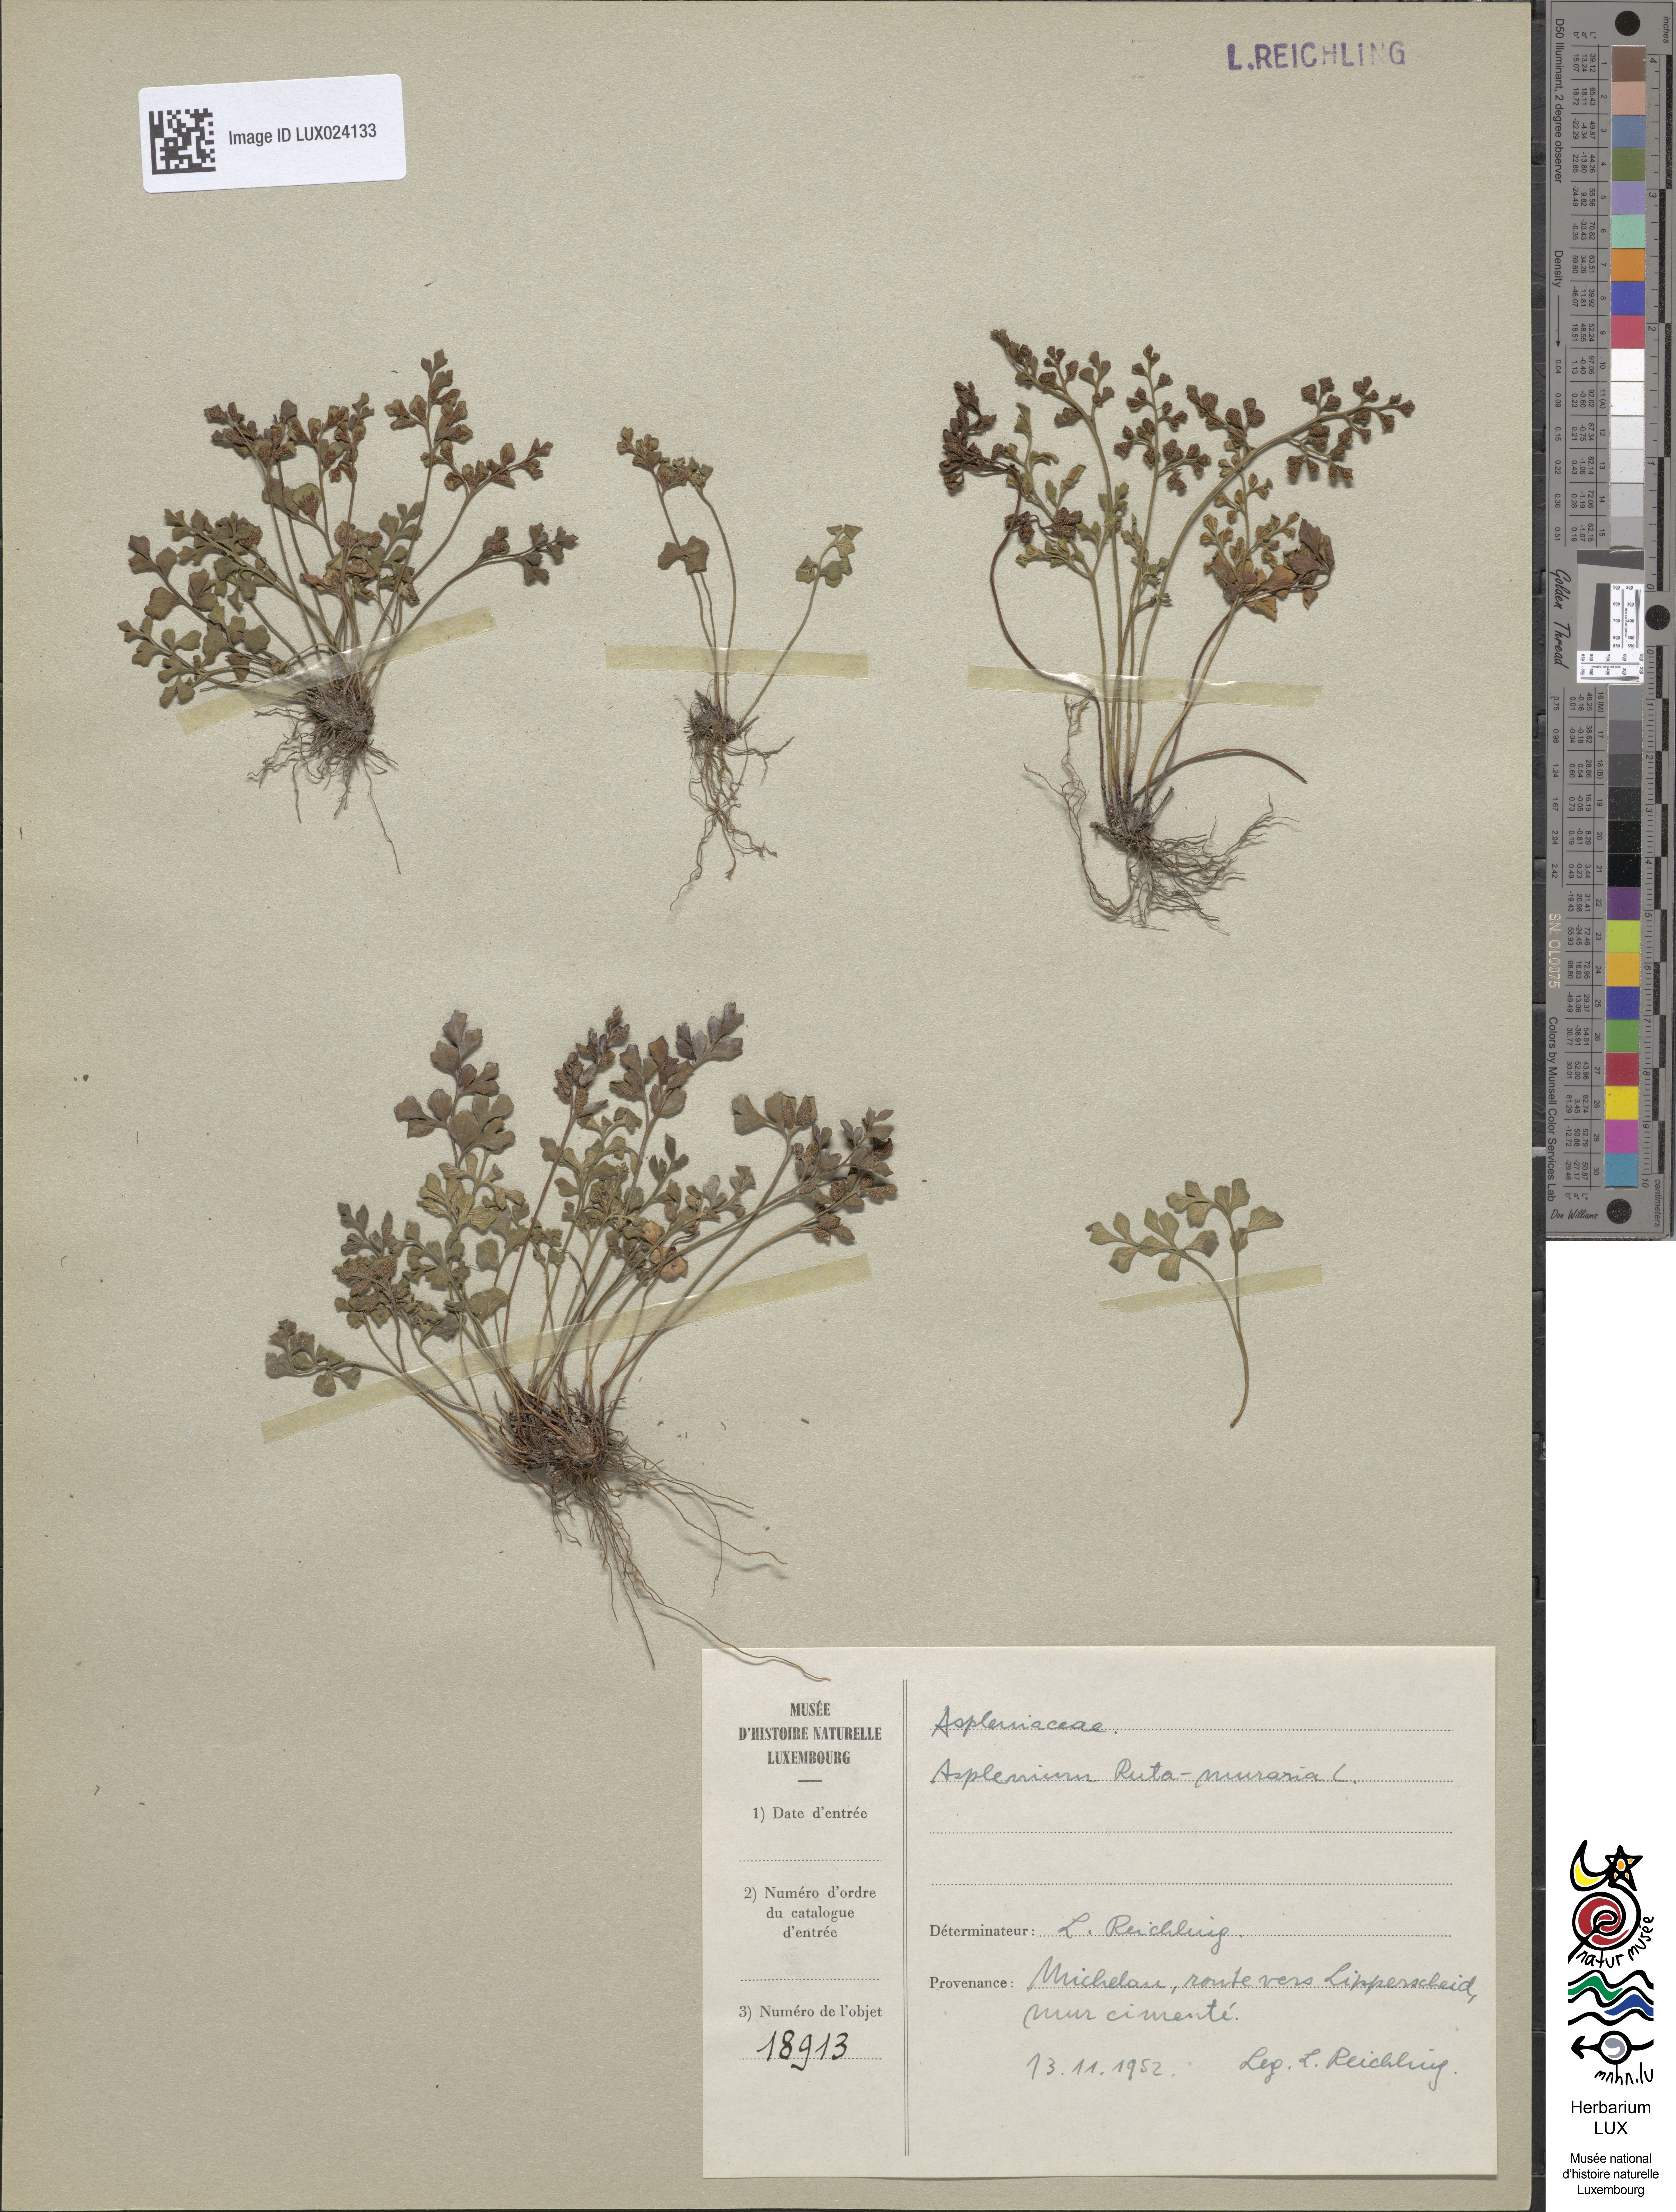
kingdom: Plantae
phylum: Tracheophyta
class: Polypodiopsida
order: Polypodiales
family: Aspleniaceae
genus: Asplenium
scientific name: Asplenium ruta-muraria
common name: Wall-rue
